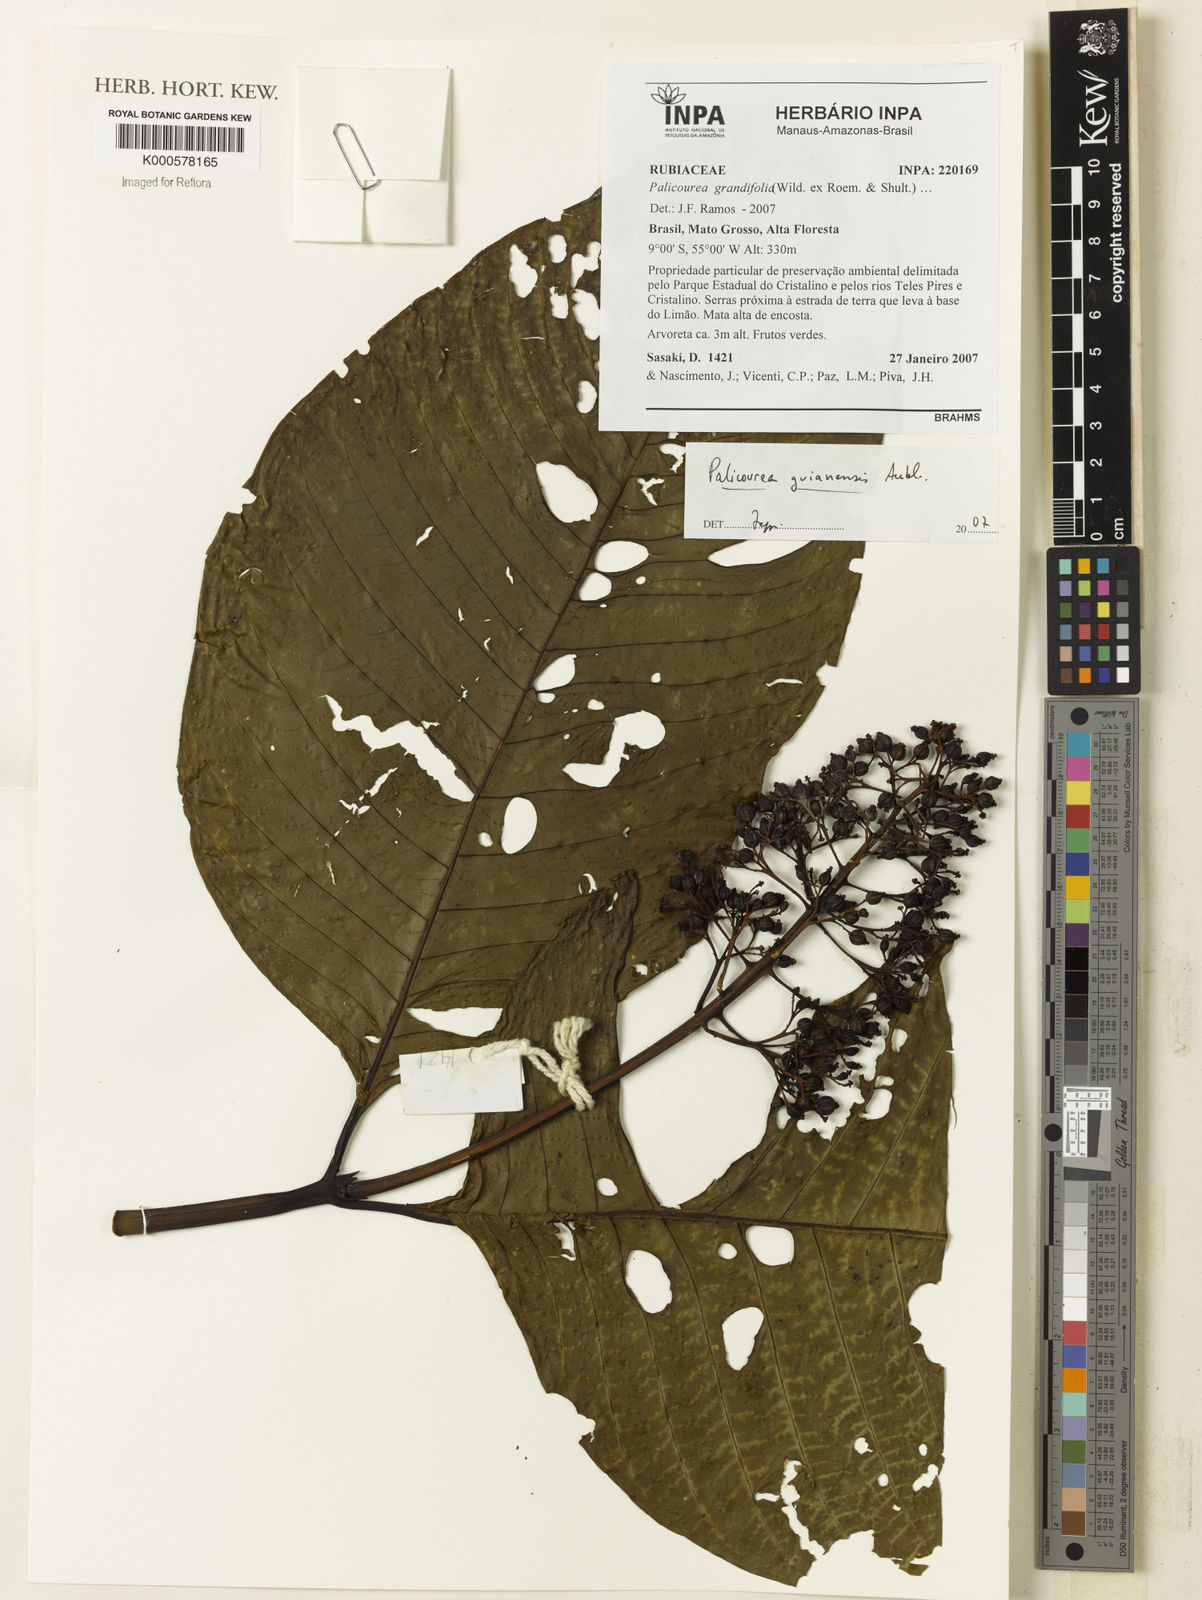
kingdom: Plantae
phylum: Tracheophyta
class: Magnoliopsida
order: Gentianales
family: Rubiaceae
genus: Palicourea
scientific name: Palicourea guianensis
